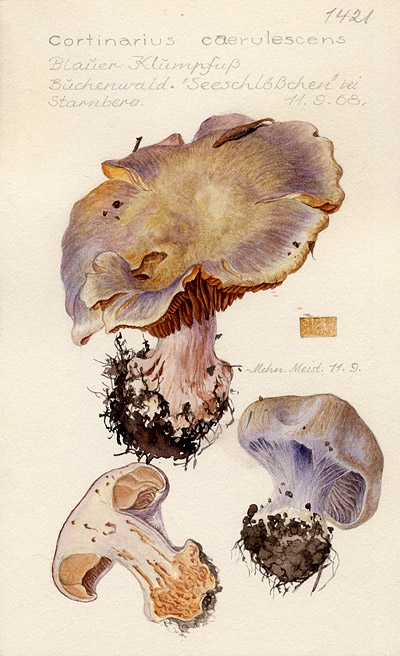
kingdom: Fungi
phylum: Basidiomycota
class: Agaricomycetes
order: Agaricales
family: Cortinariaceae
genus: Cortinarius
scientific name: Cortinarius caerulescens
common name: Mealy bigfoot webcap
